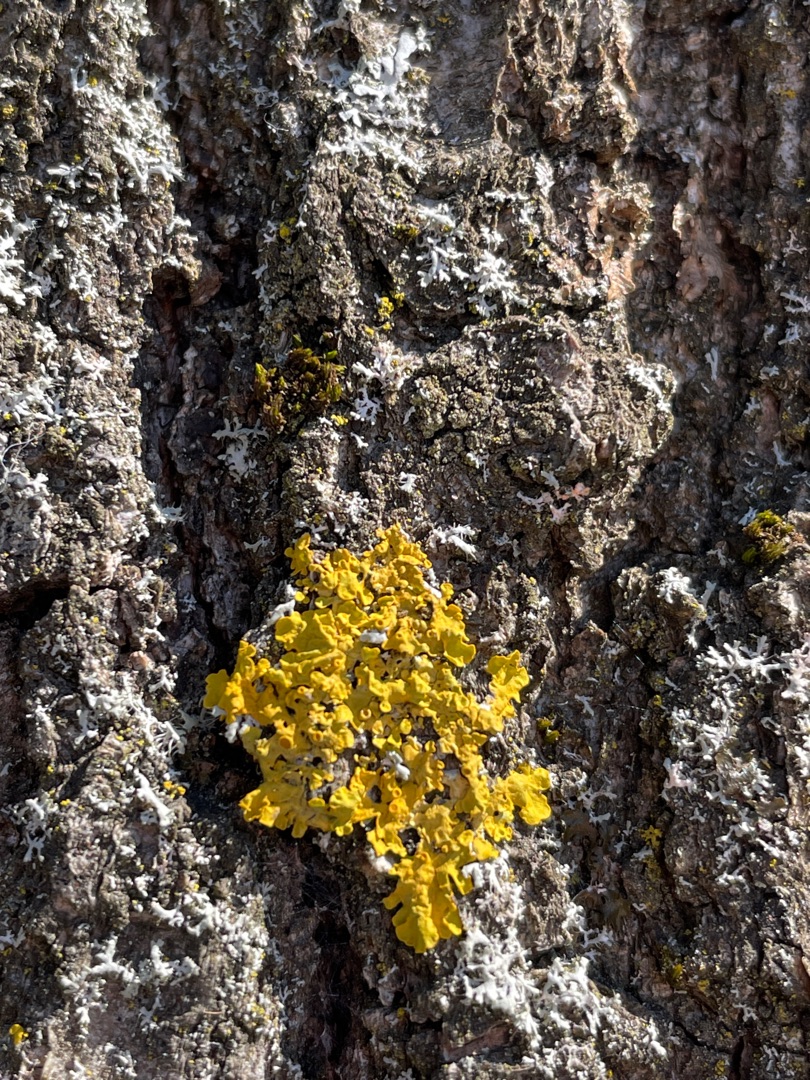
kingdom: Fungi
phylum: Ascomycota
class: Lecanoromycetes
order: Teloschistales
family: Teloschistaceae
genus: Xanthoria
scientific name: Xanthoria parietina
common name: Almindelig væggelav
